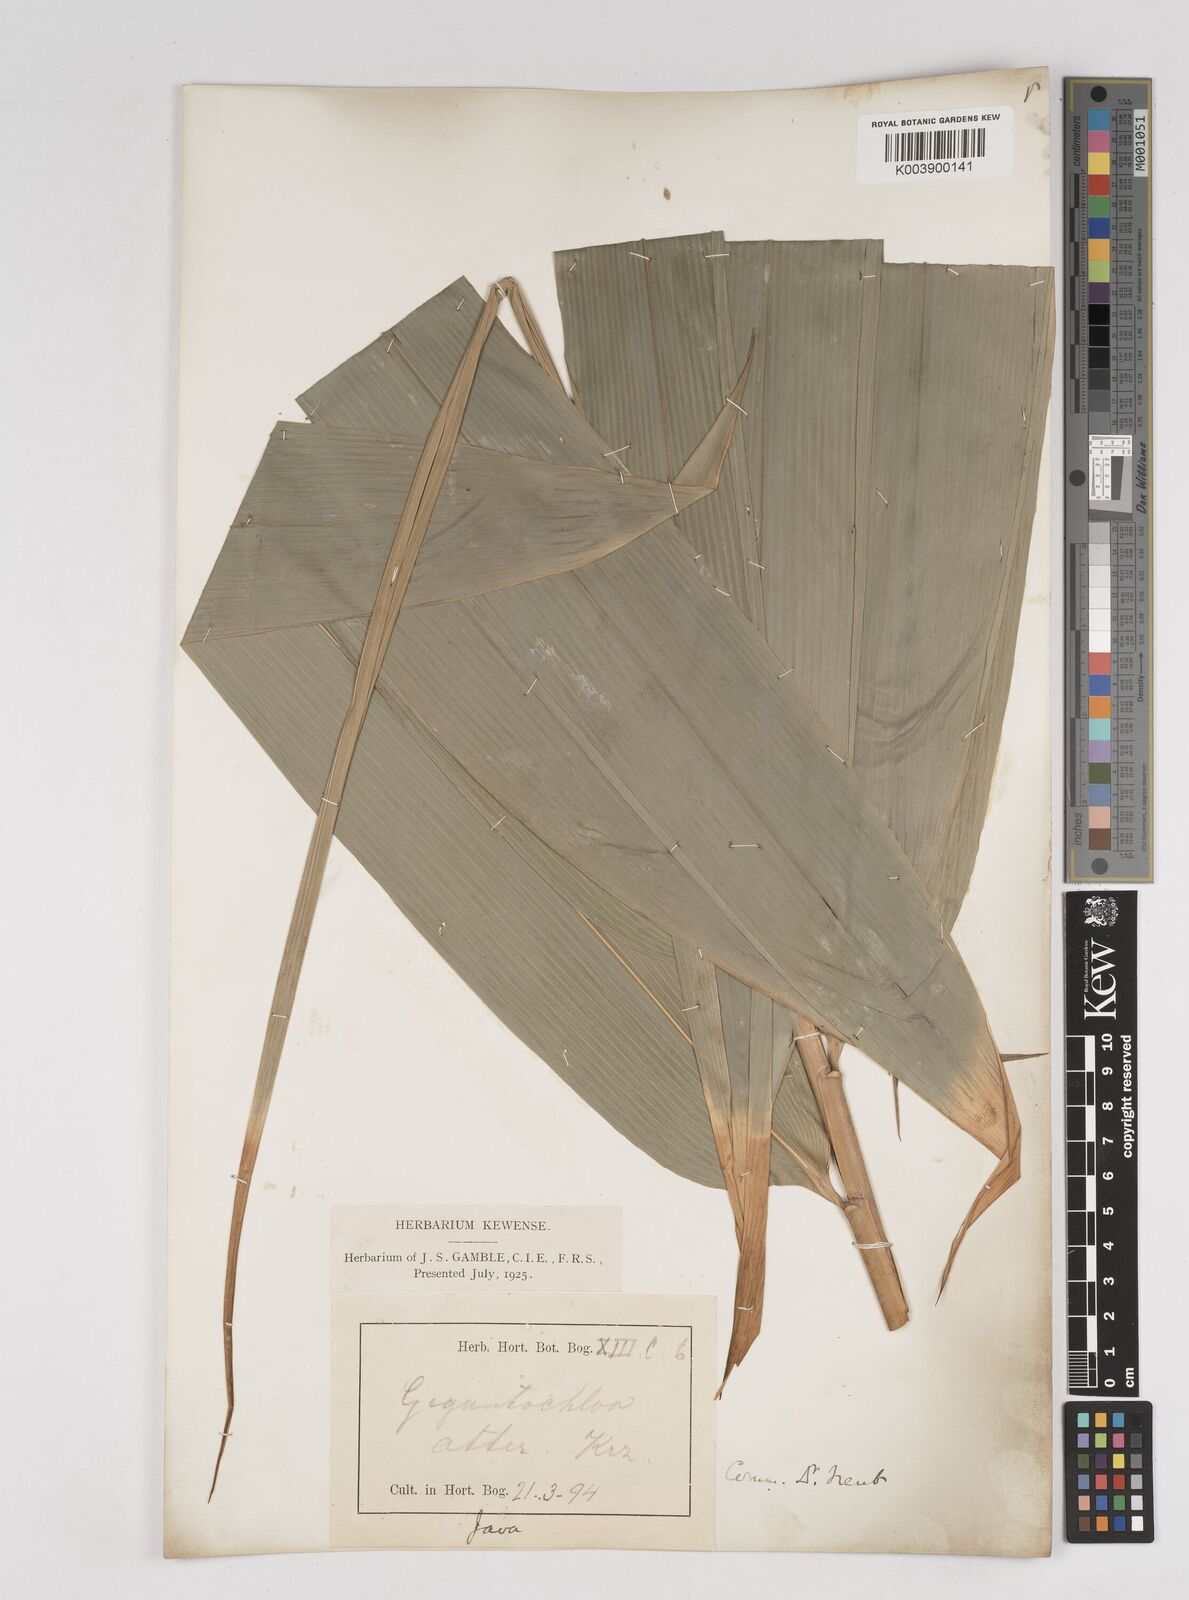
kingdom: Plantae
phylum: Tracheophyta
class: Liliopsida
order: Poales
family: Poaceae
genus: Gigantochloa
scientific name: Gigantochloa atter
